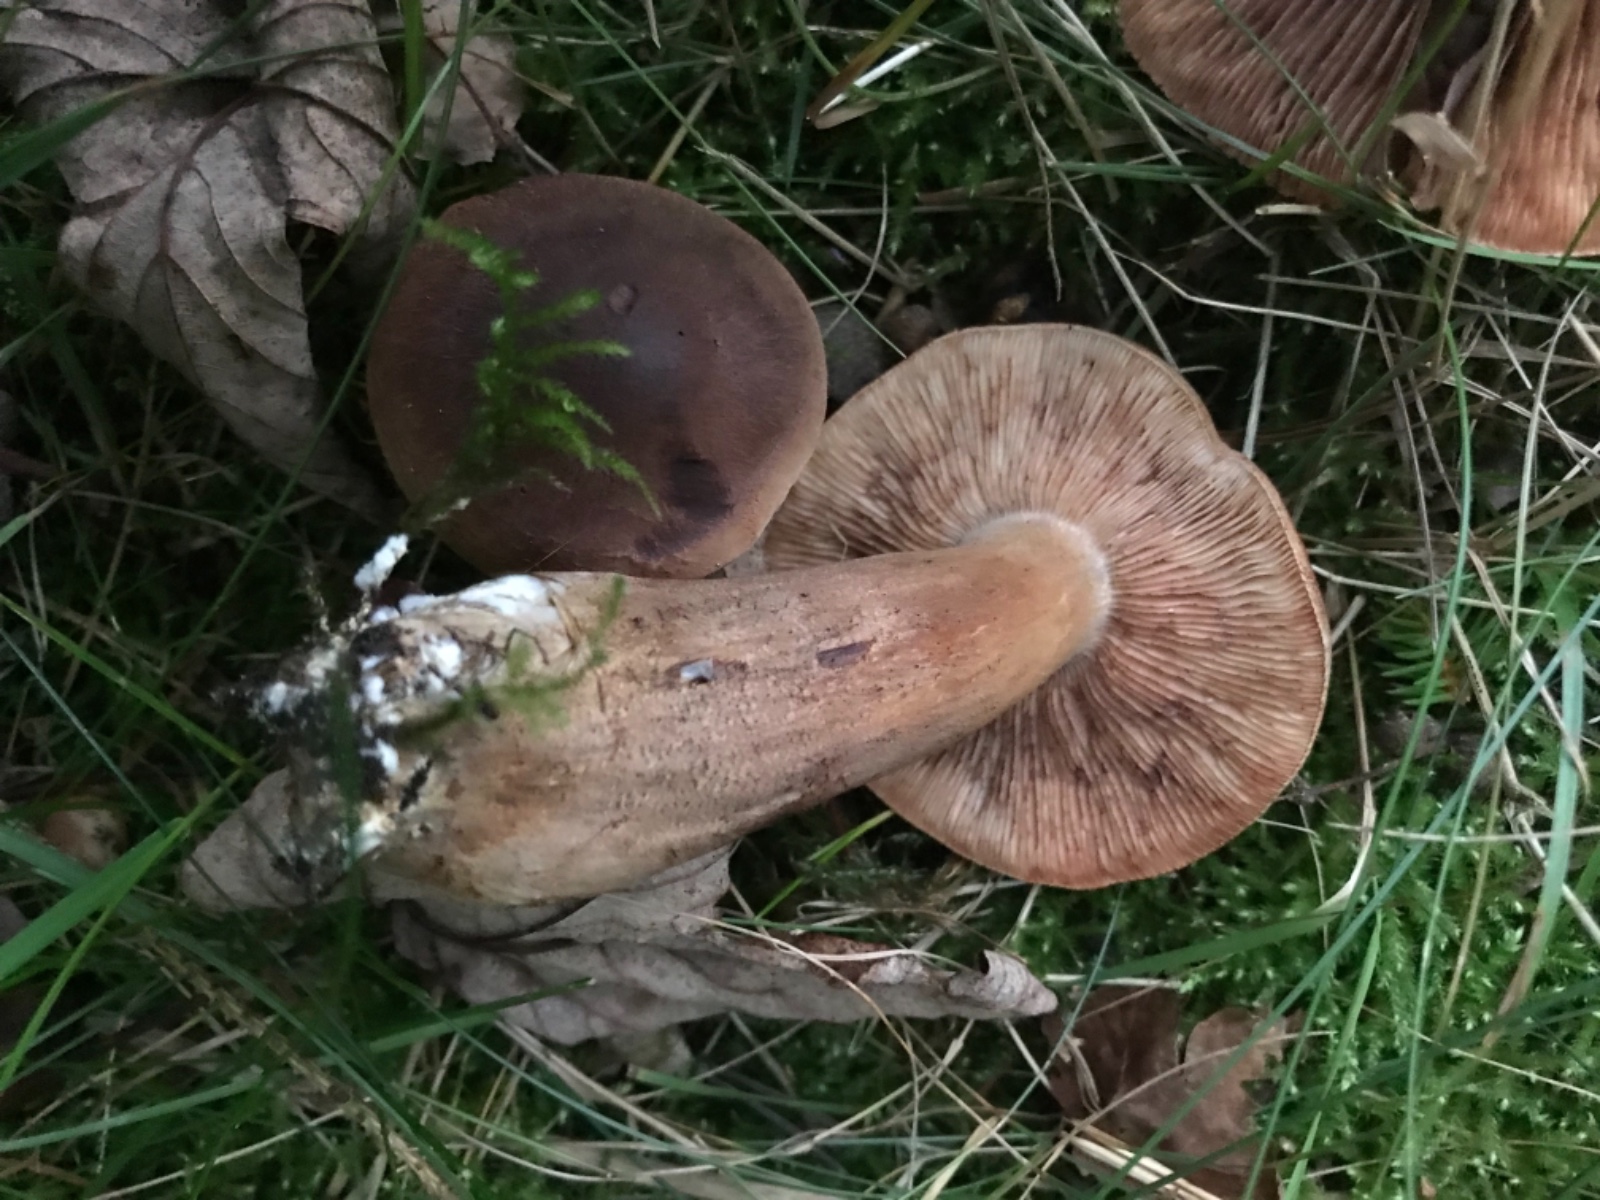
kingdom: Fungi
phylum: Basidiomycota
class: Agaricomycetes
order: Agaricales
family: Tricholomataceae
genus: Tricholoma
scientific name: Tricholoma imbricatum
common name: skællet ridderhat
